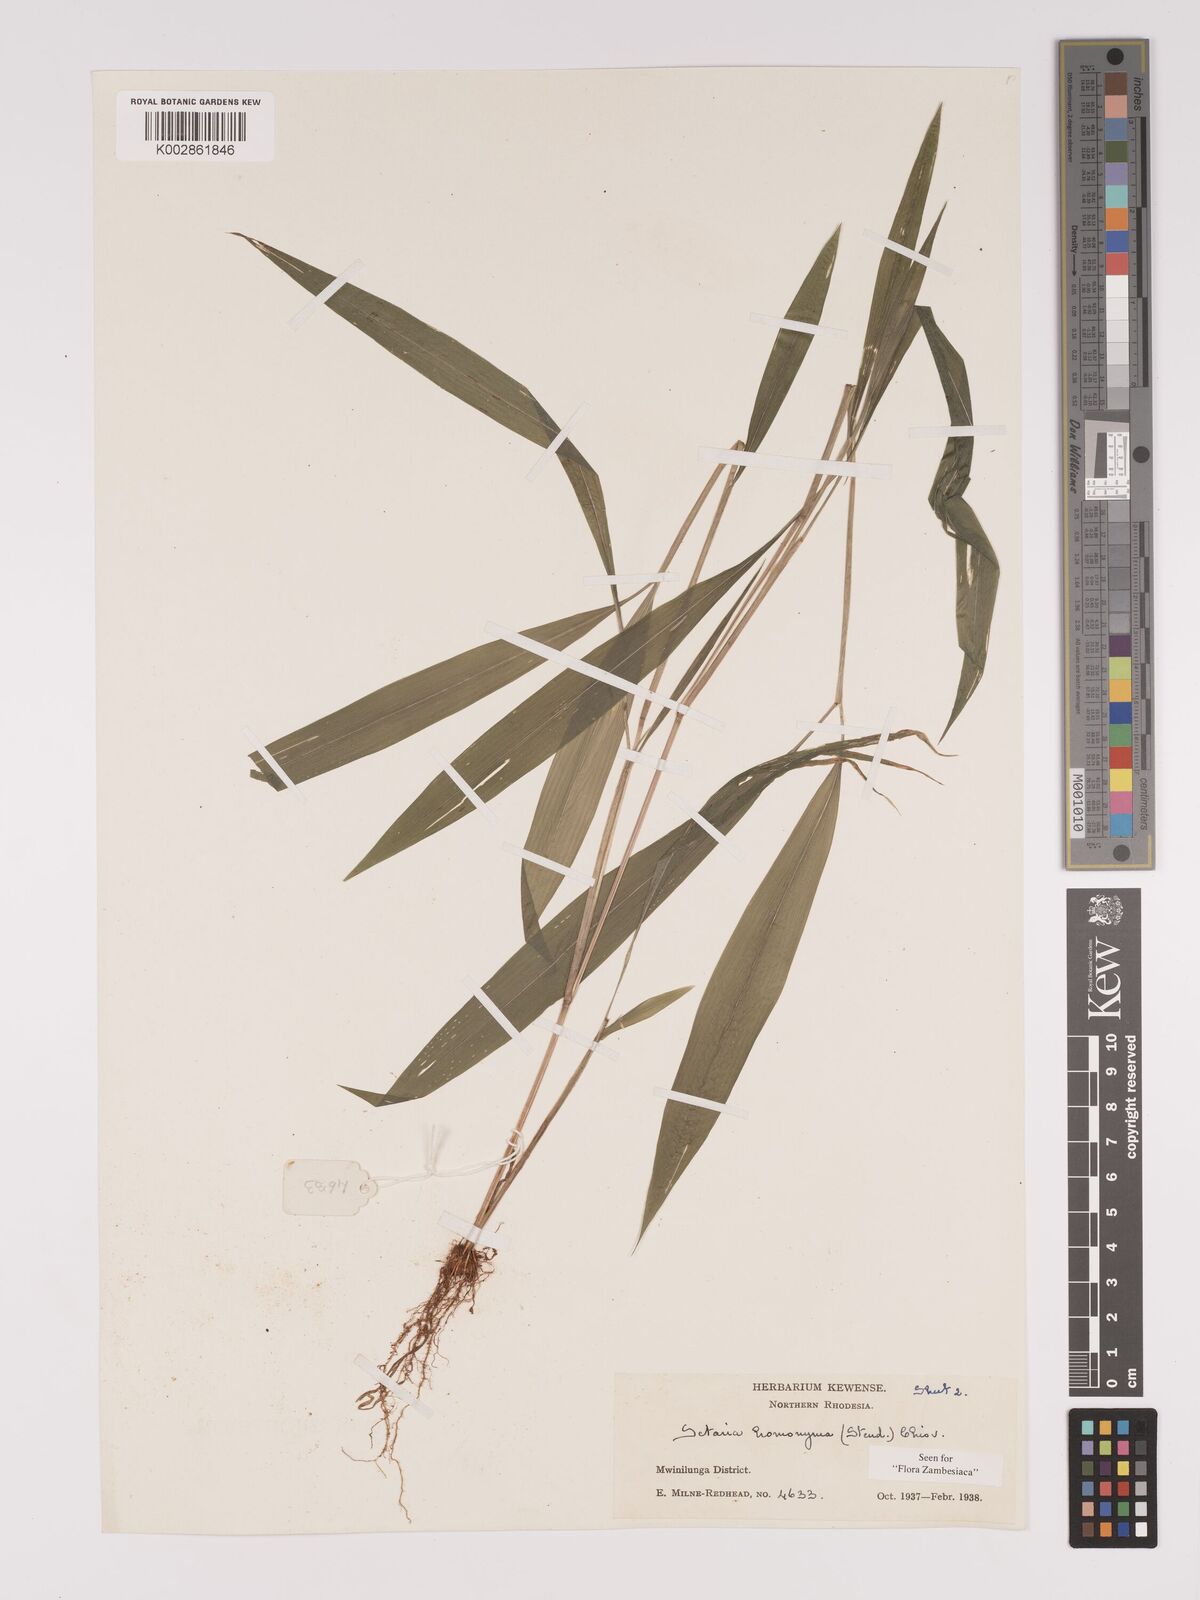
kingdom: Plantae
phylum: Tracheophyta
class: Liliopsida
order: Poales
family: Poaceae
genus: Setaria
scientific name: Setaria homonyma
